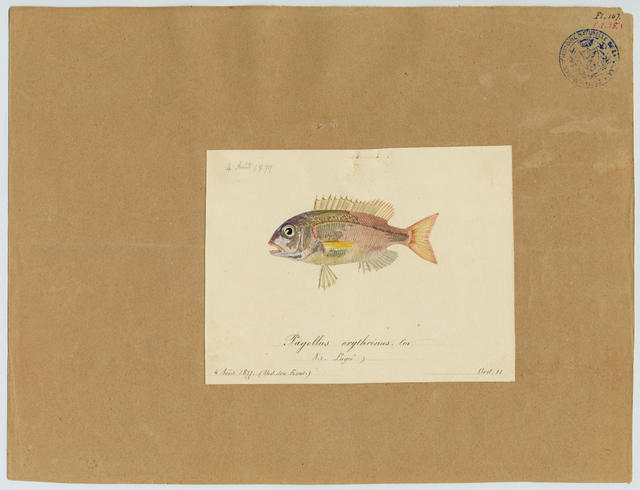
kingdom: Animalia
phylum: Chordata
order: Perciformes
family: Sparidae
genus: Pagellus
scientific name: Pagellus acarne
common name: Axillary sea-bream
